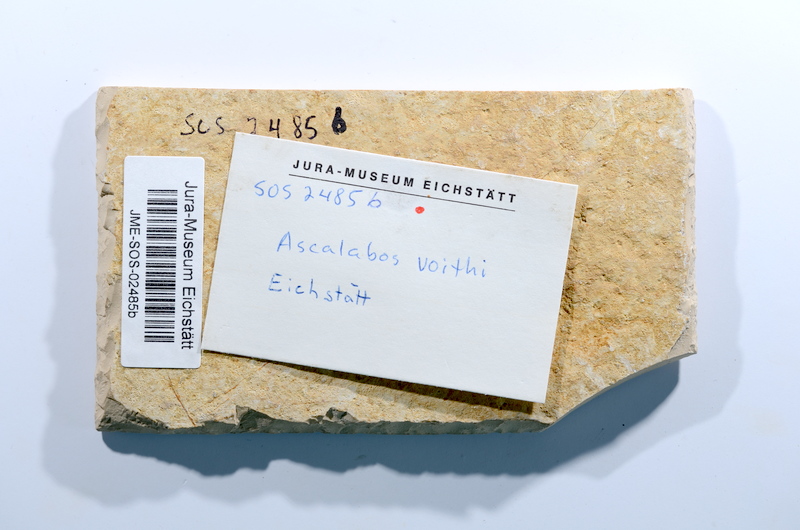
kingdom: Animalia
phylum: Chordata
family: Ascalaboidae
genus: Ascalabos
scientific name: Ascalabos voithii
